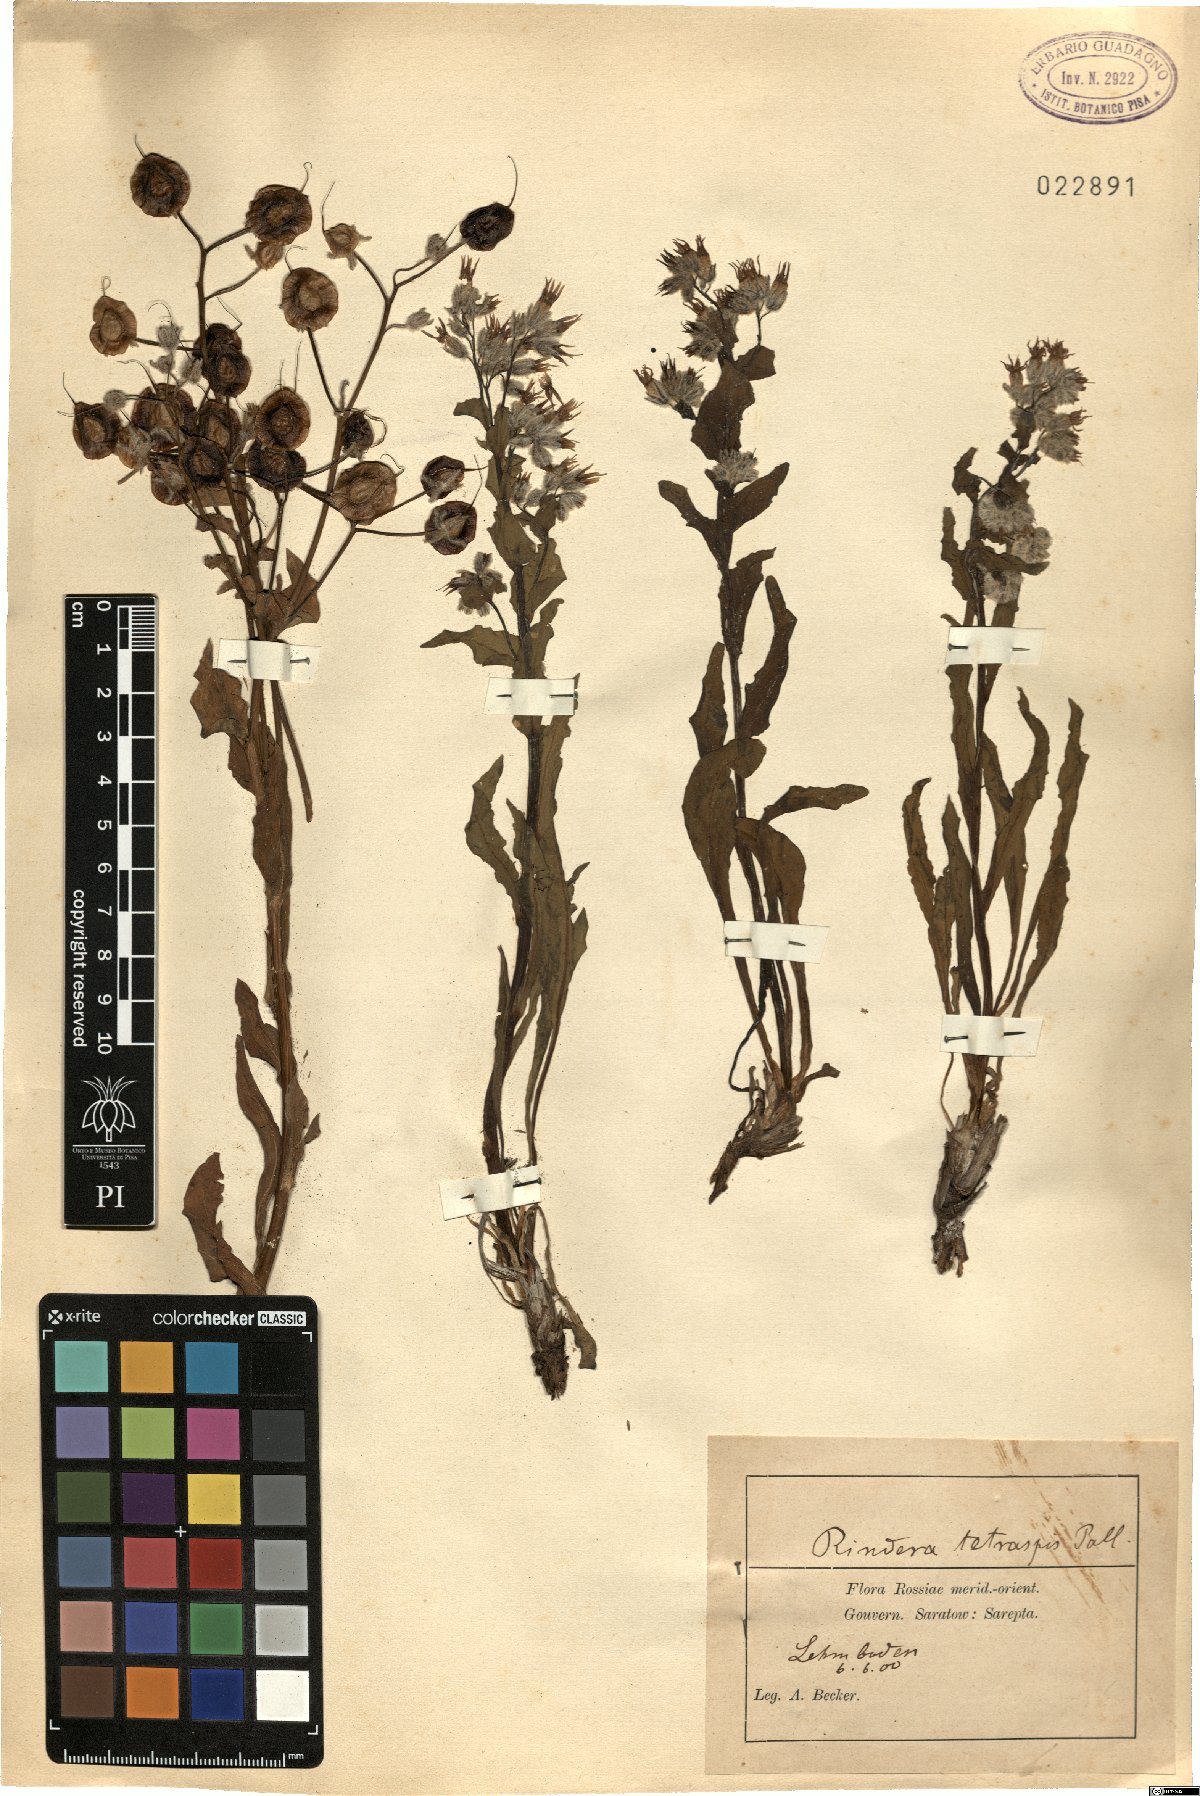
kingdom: Plantae
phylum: Tracheophyta
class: Magnoliopsida
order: Boraginales
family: Boraginaceae
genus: Rindera
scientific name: Rindera tetraspis
